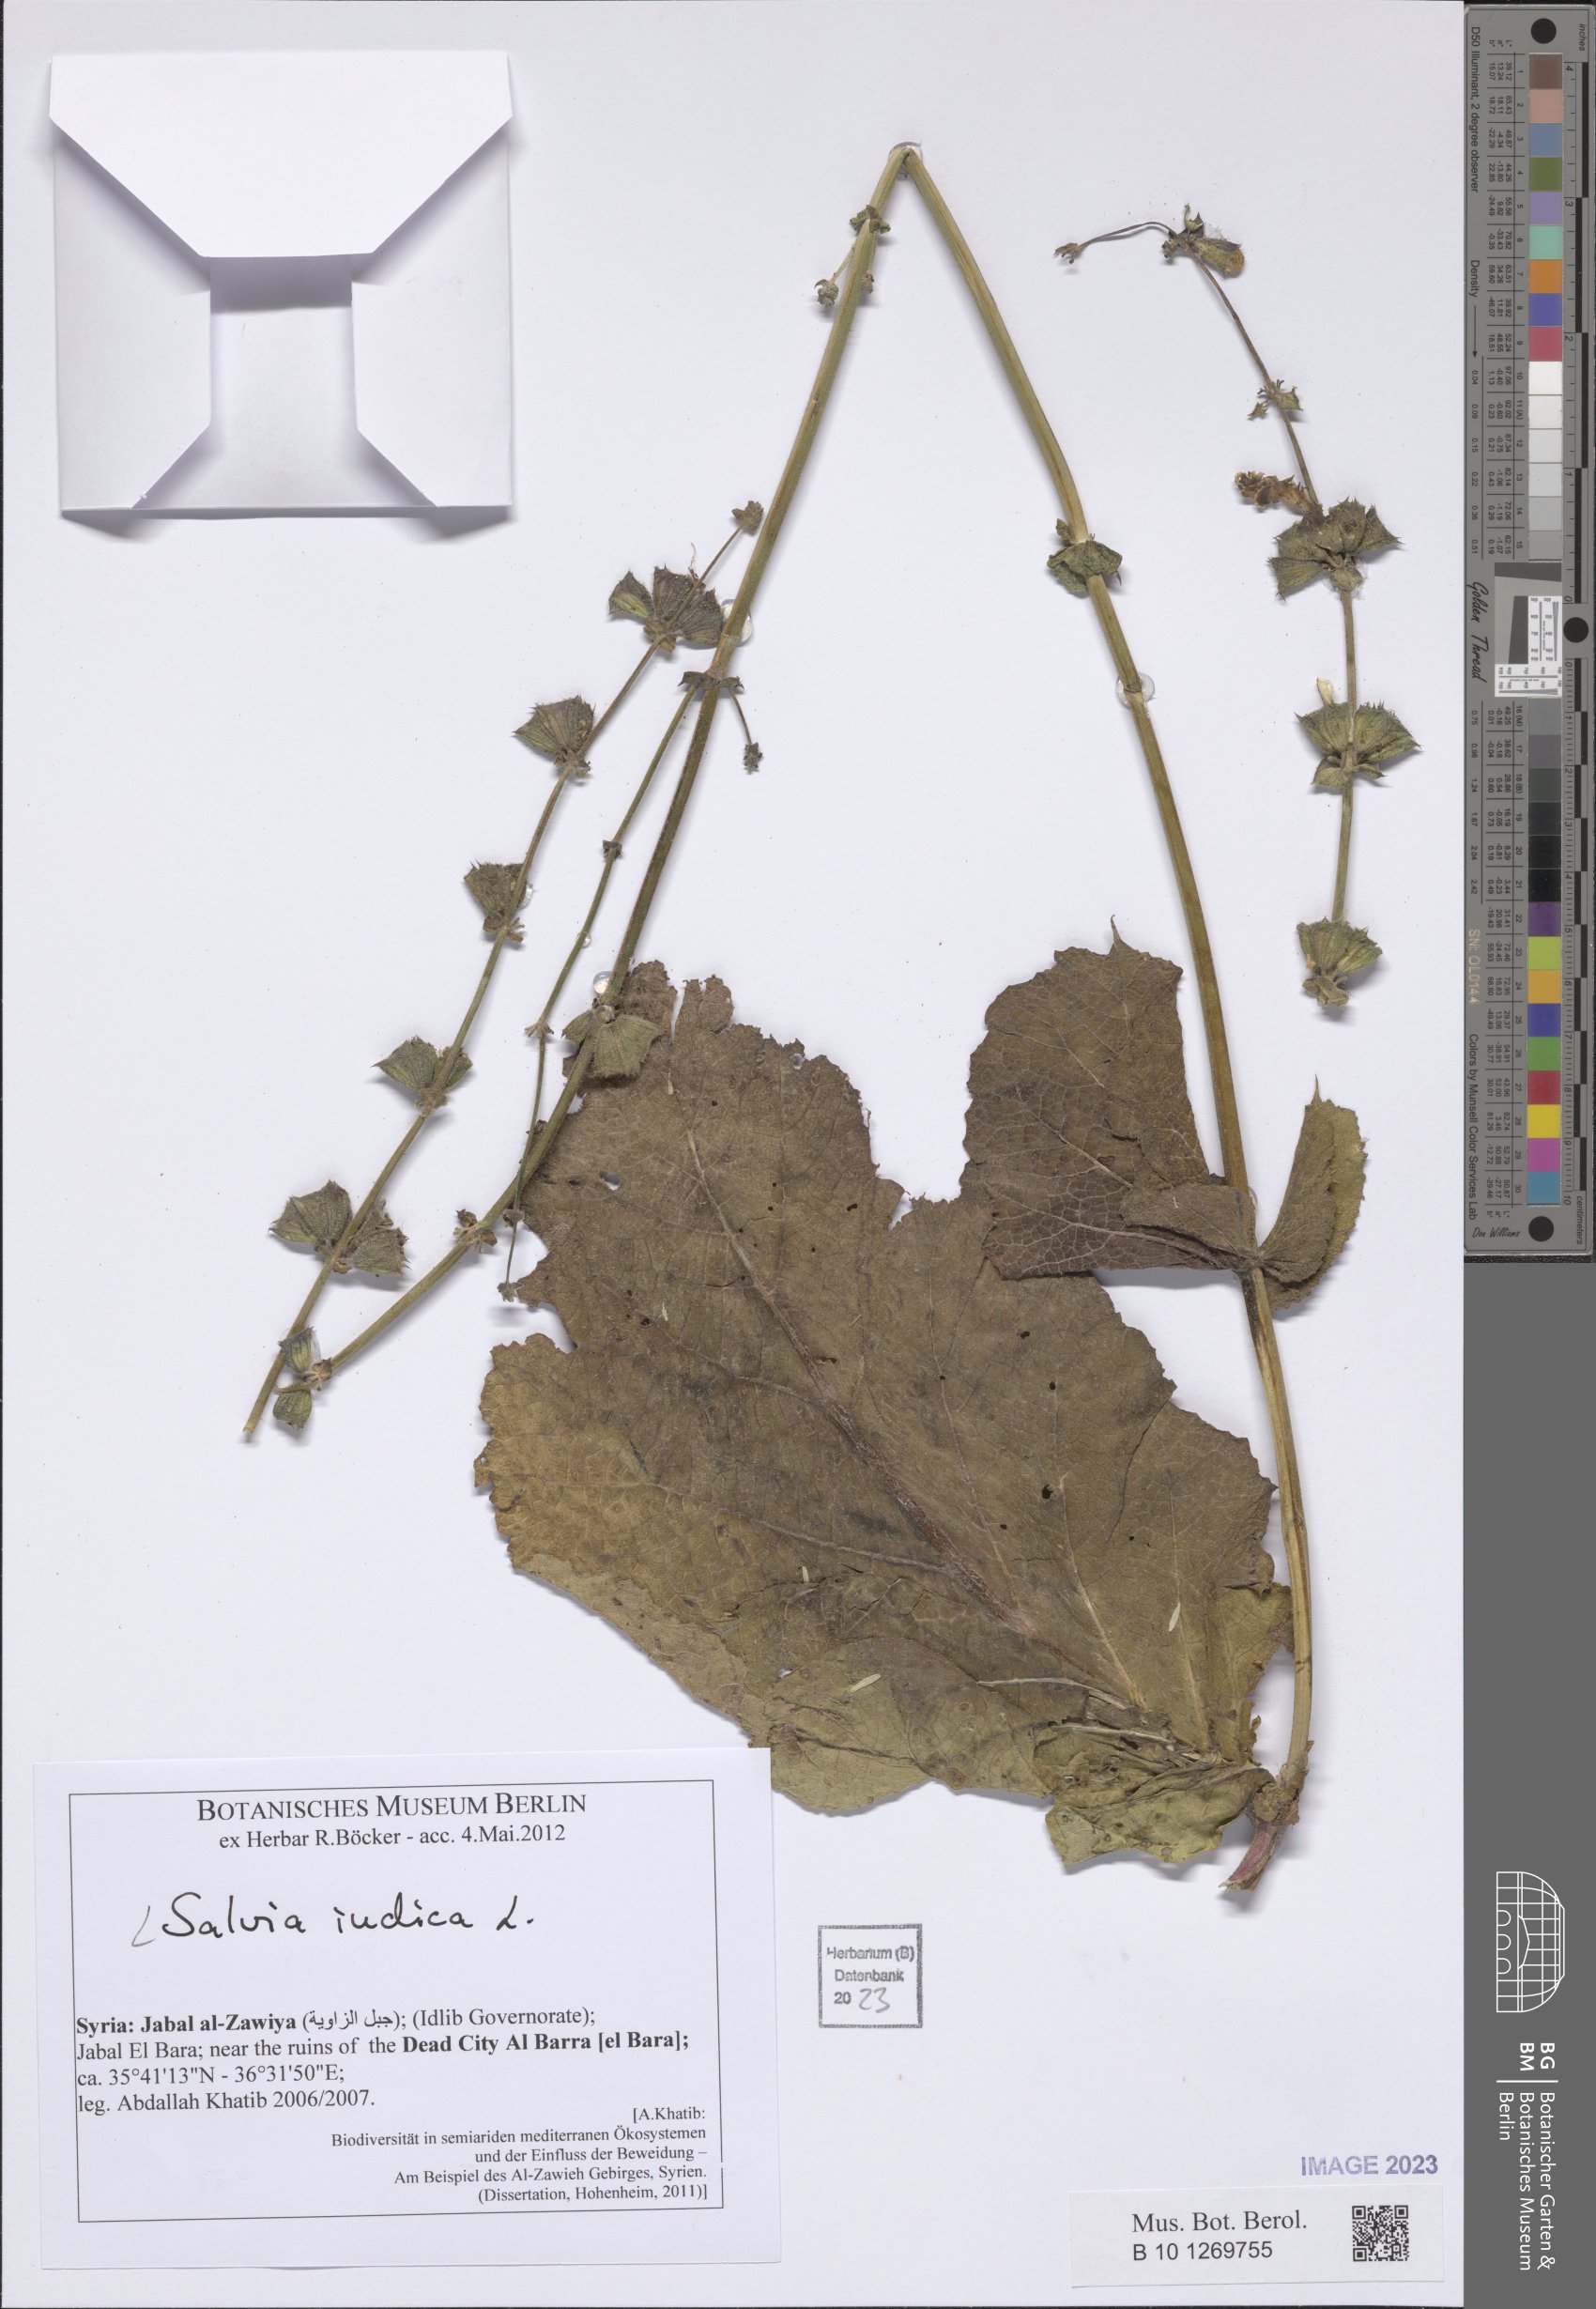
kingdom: Plantae
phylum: Tracheophyta
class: Magnoliopsida
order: Lamiales
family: Lamiaceae
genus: Salvia
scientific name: Salvia indica
